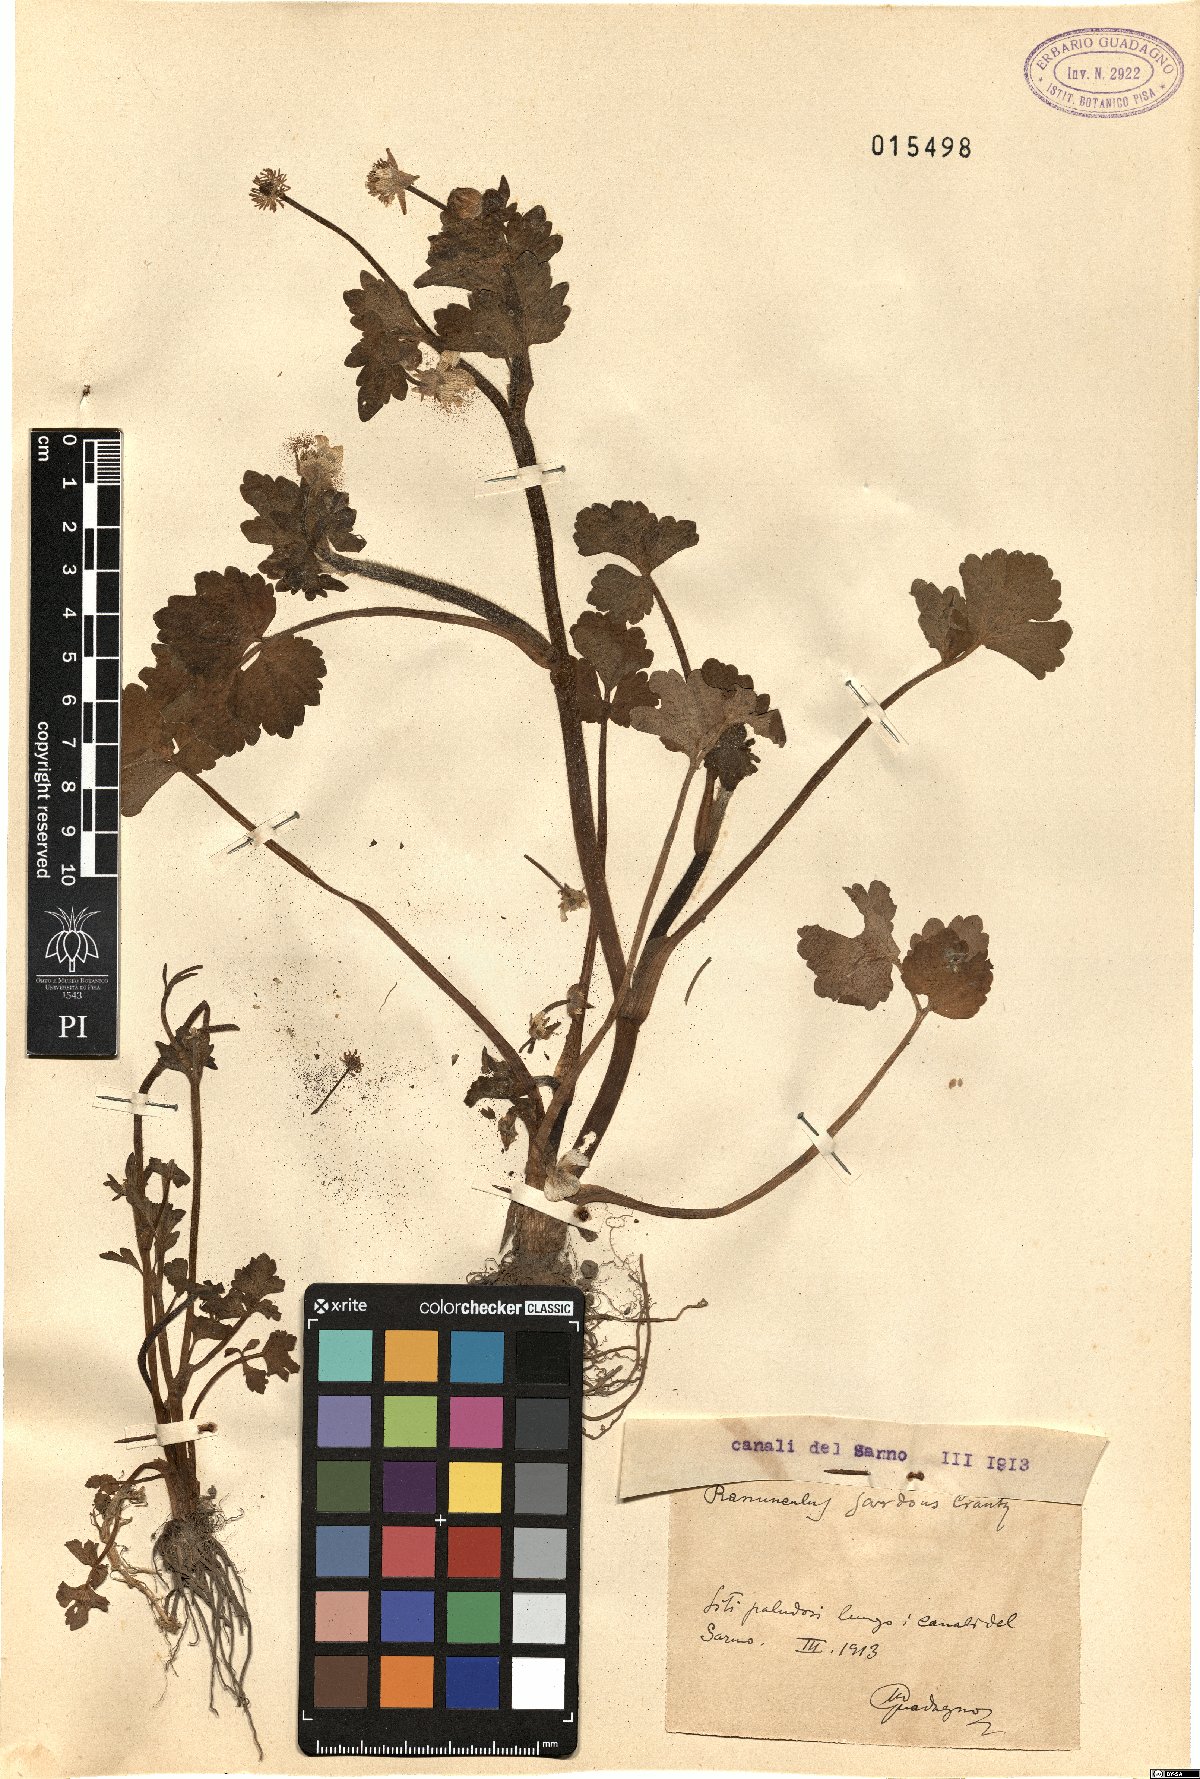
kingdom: Plantae
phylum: Tracheophyta
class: Magnoliopsida
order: Ranunculales
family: Ranunculaceae
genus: Ranunculus
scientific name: Ranunculus sardous
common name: Hairy buttercup
